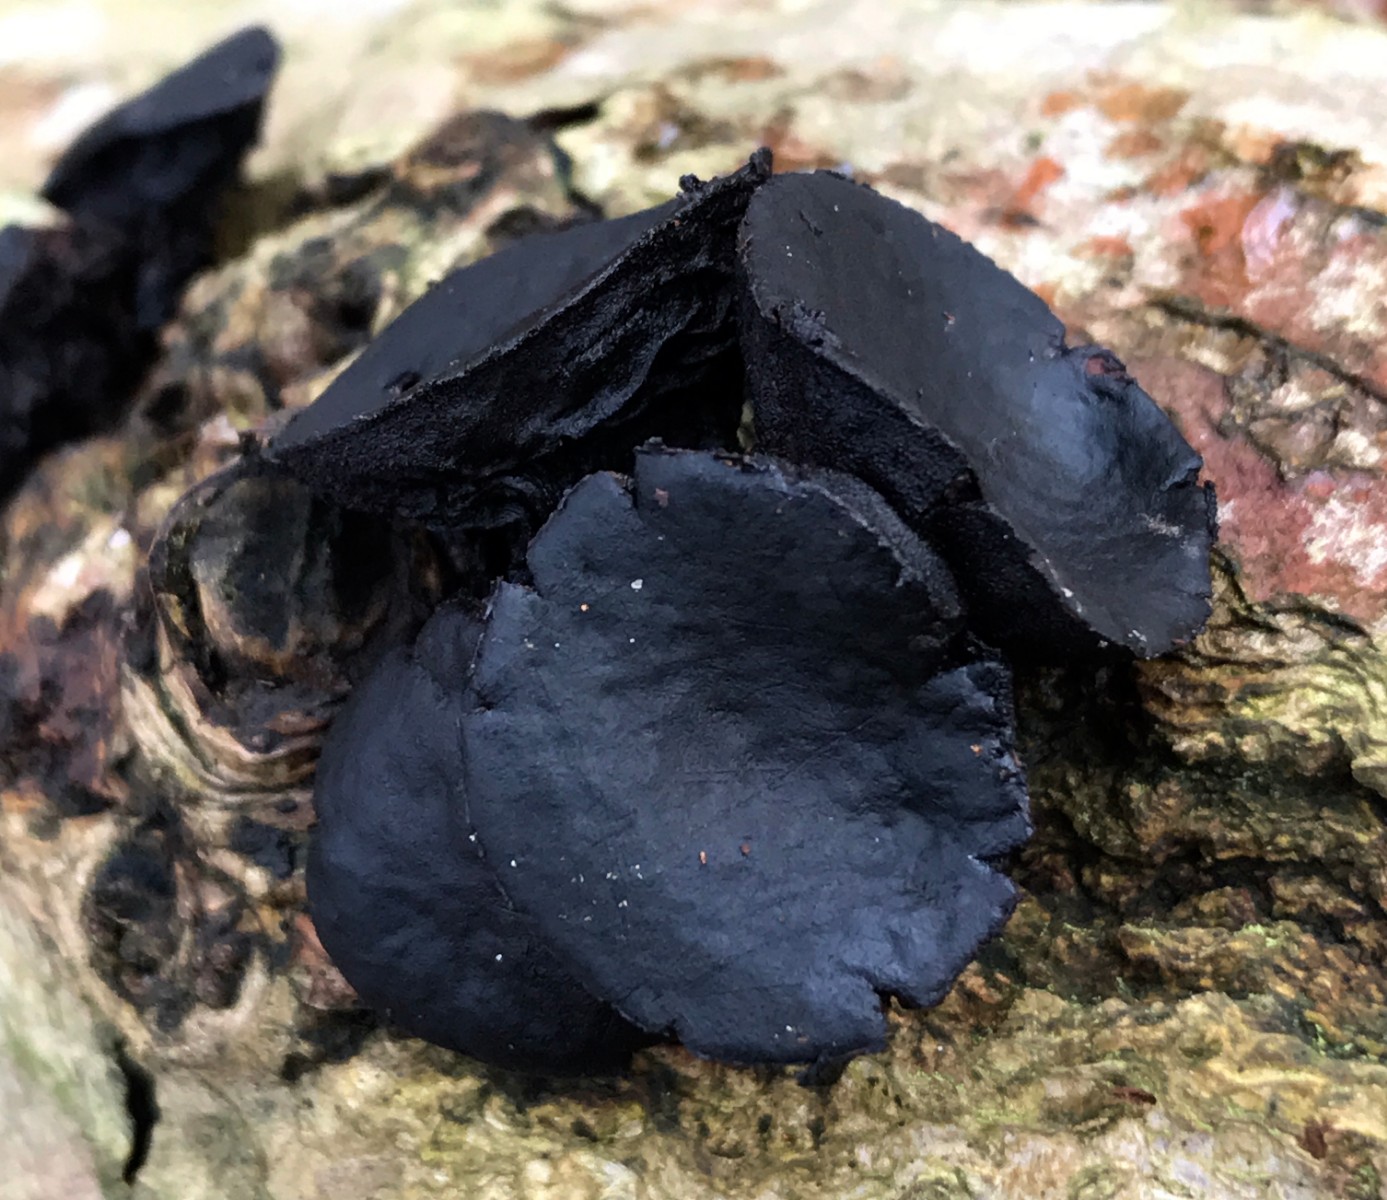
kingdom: Fungi
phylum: Ascomycota
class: Leotiomycetes
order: Phacidiales
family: Phacidiaceae
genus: Bulgaria
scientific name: Bulgaria inquinans
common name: afsmittende topsvamp
